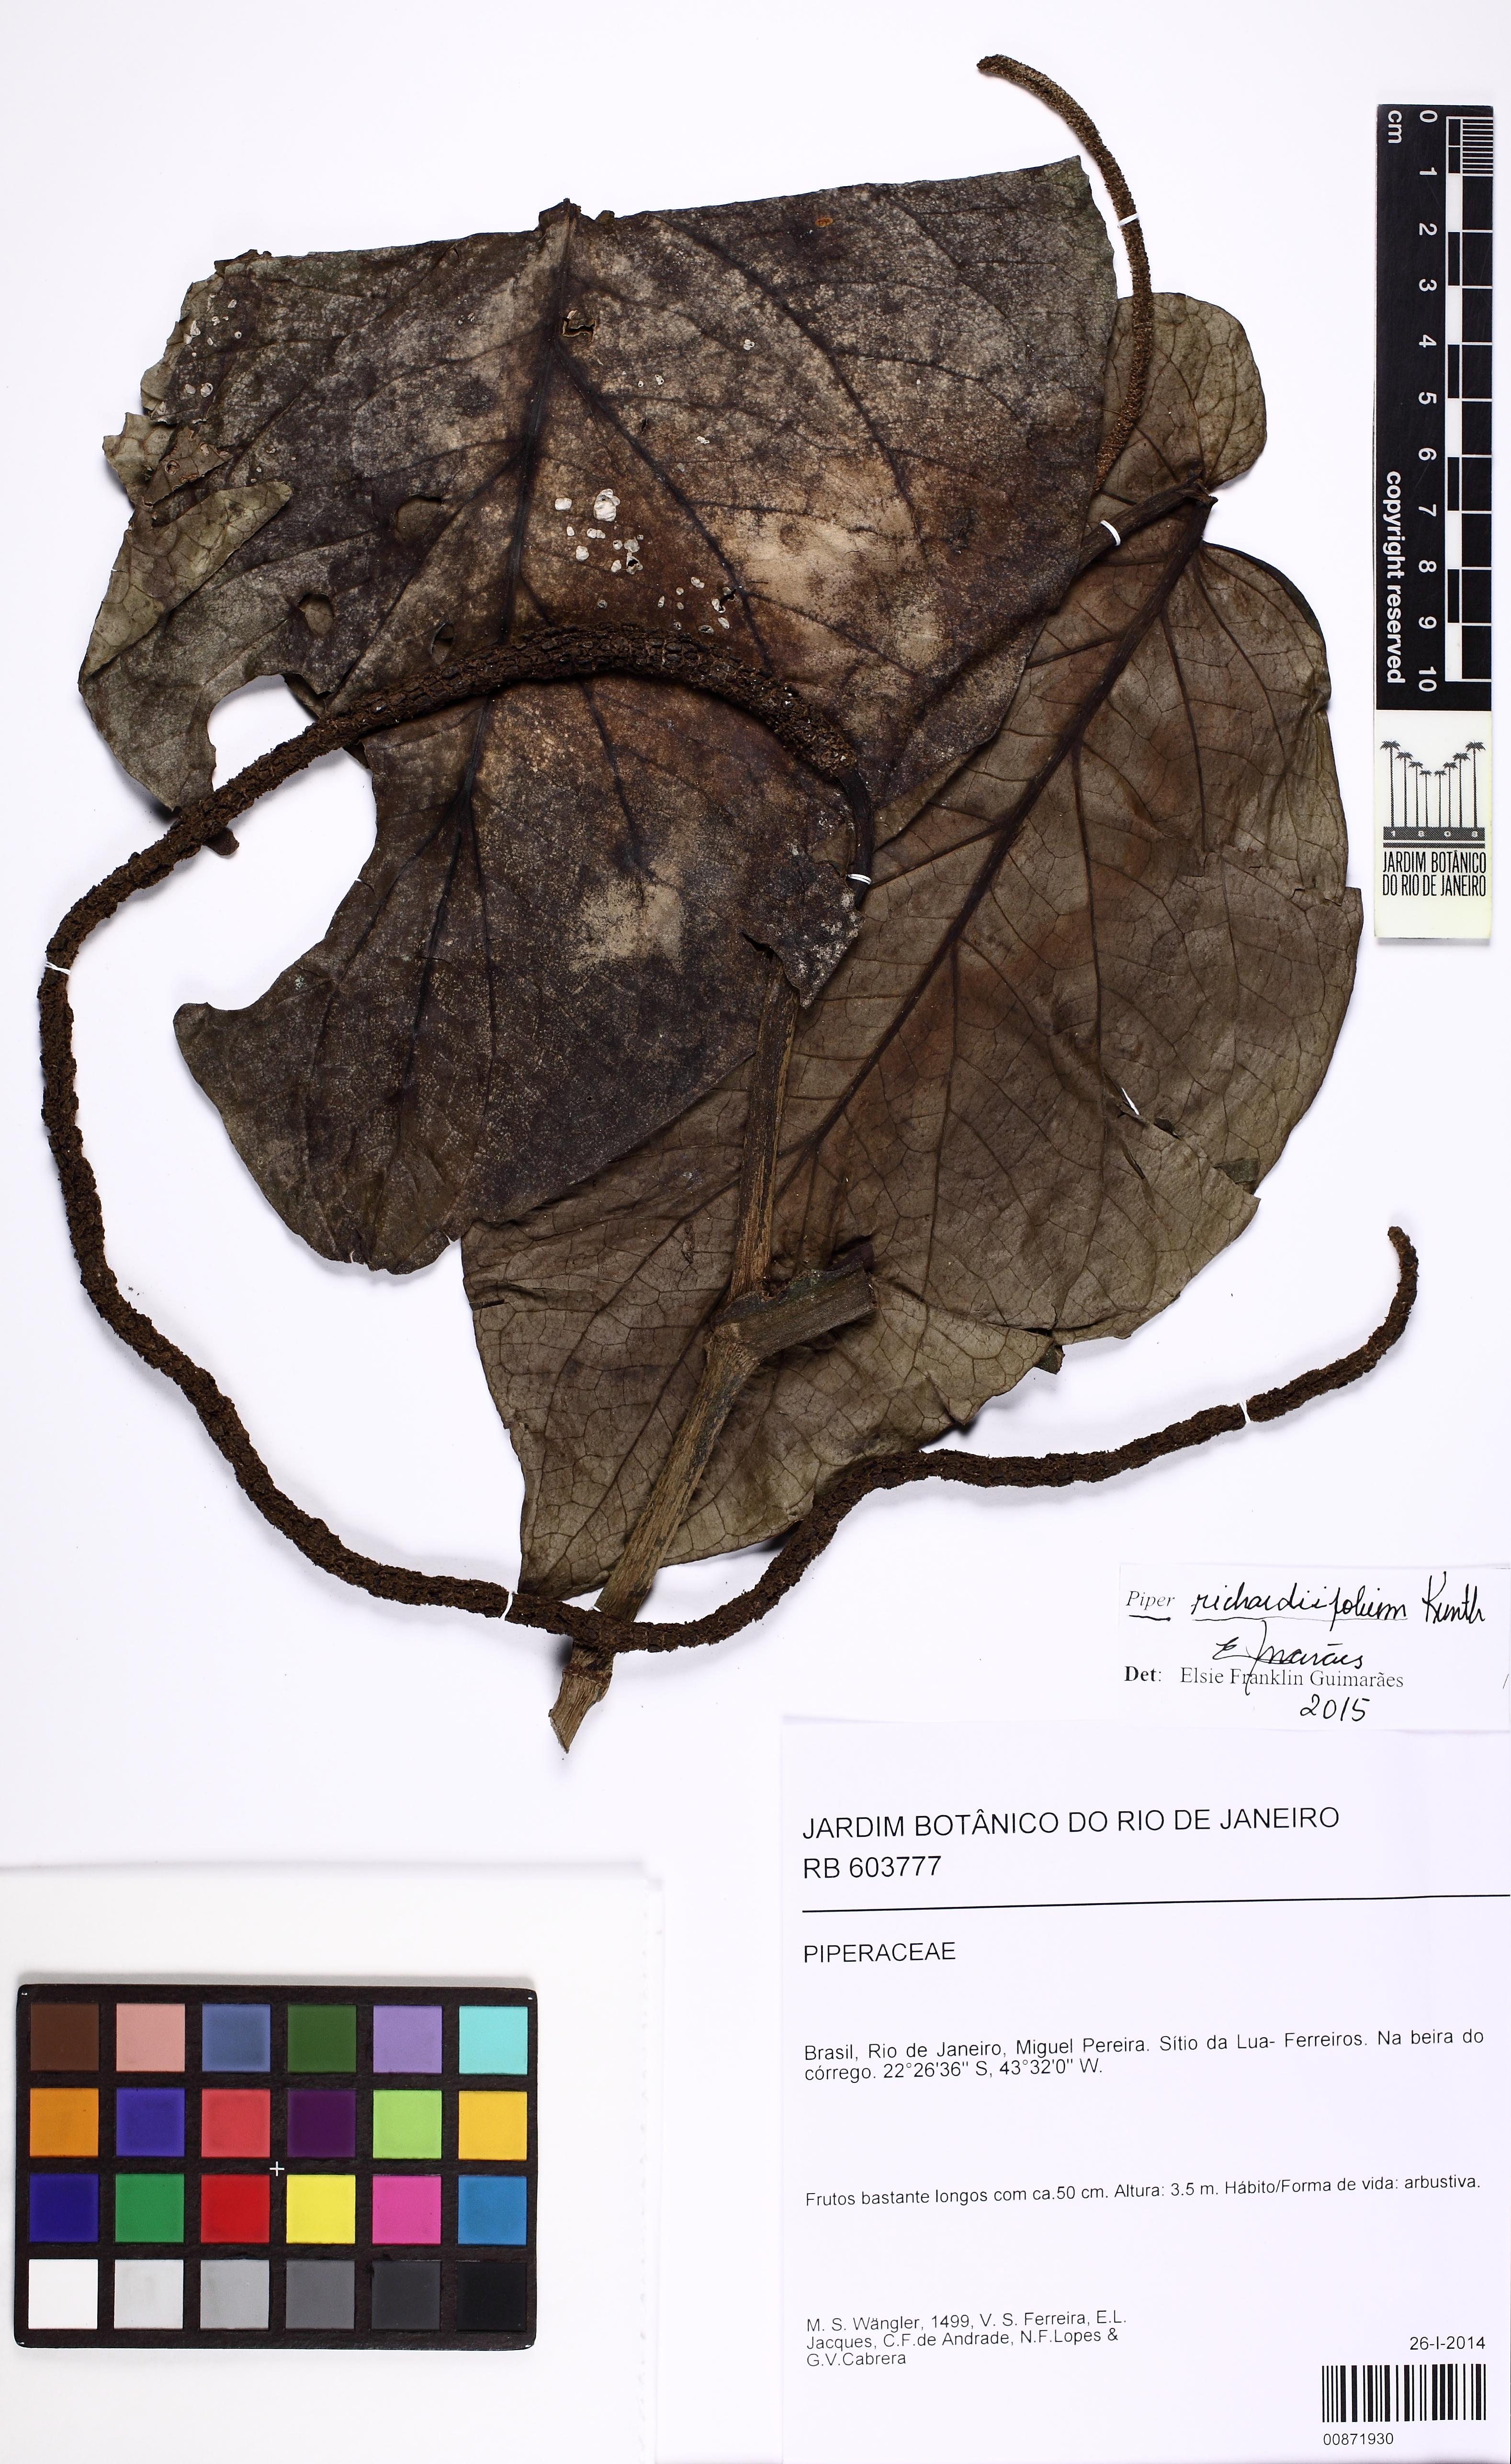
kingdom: Plantae
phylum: Tracheophyta
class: Magnoliopsida
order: Piperales
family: Piperaceae
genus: Piper
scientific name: Piper richardiifolium
